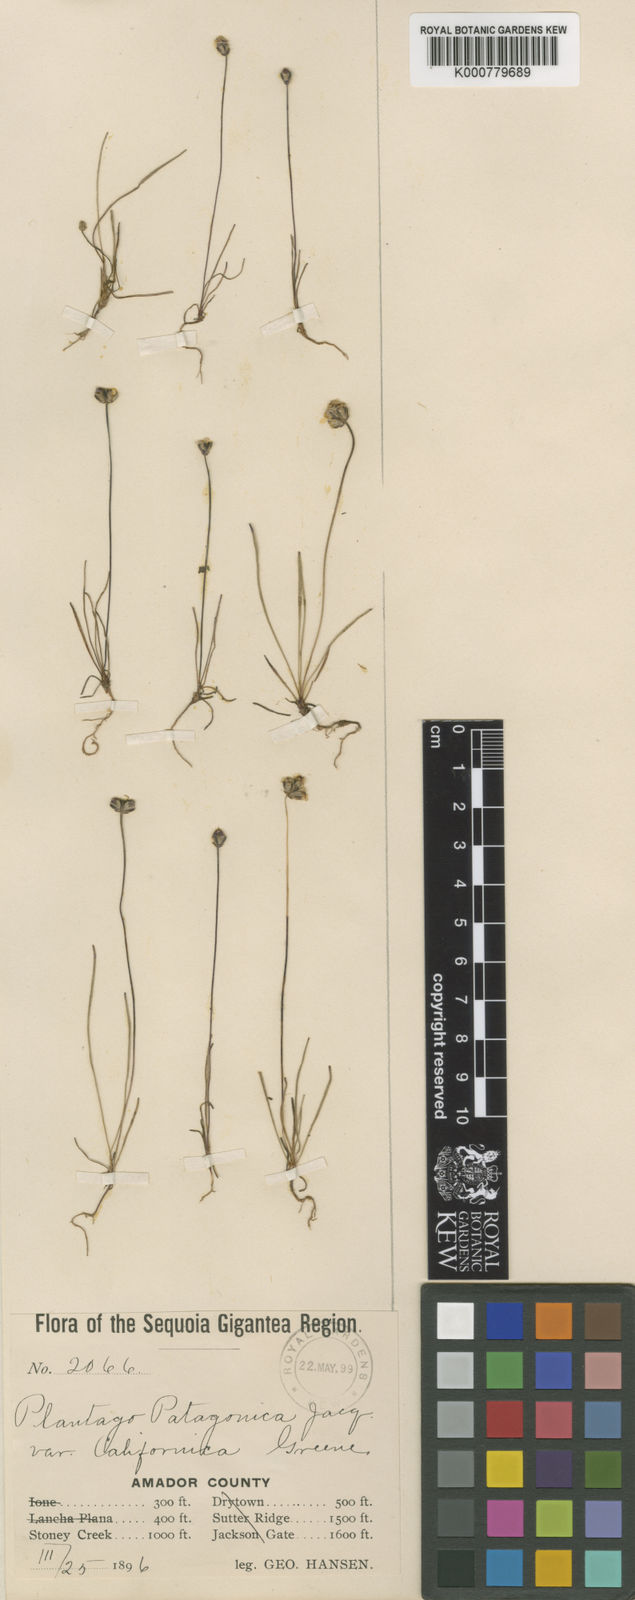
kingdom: Plantae
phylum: Tracheophyta
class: Magnoliopsida
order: Lamiales
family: Plantaginaceae
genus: Plantago
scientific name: Plantago erecta
